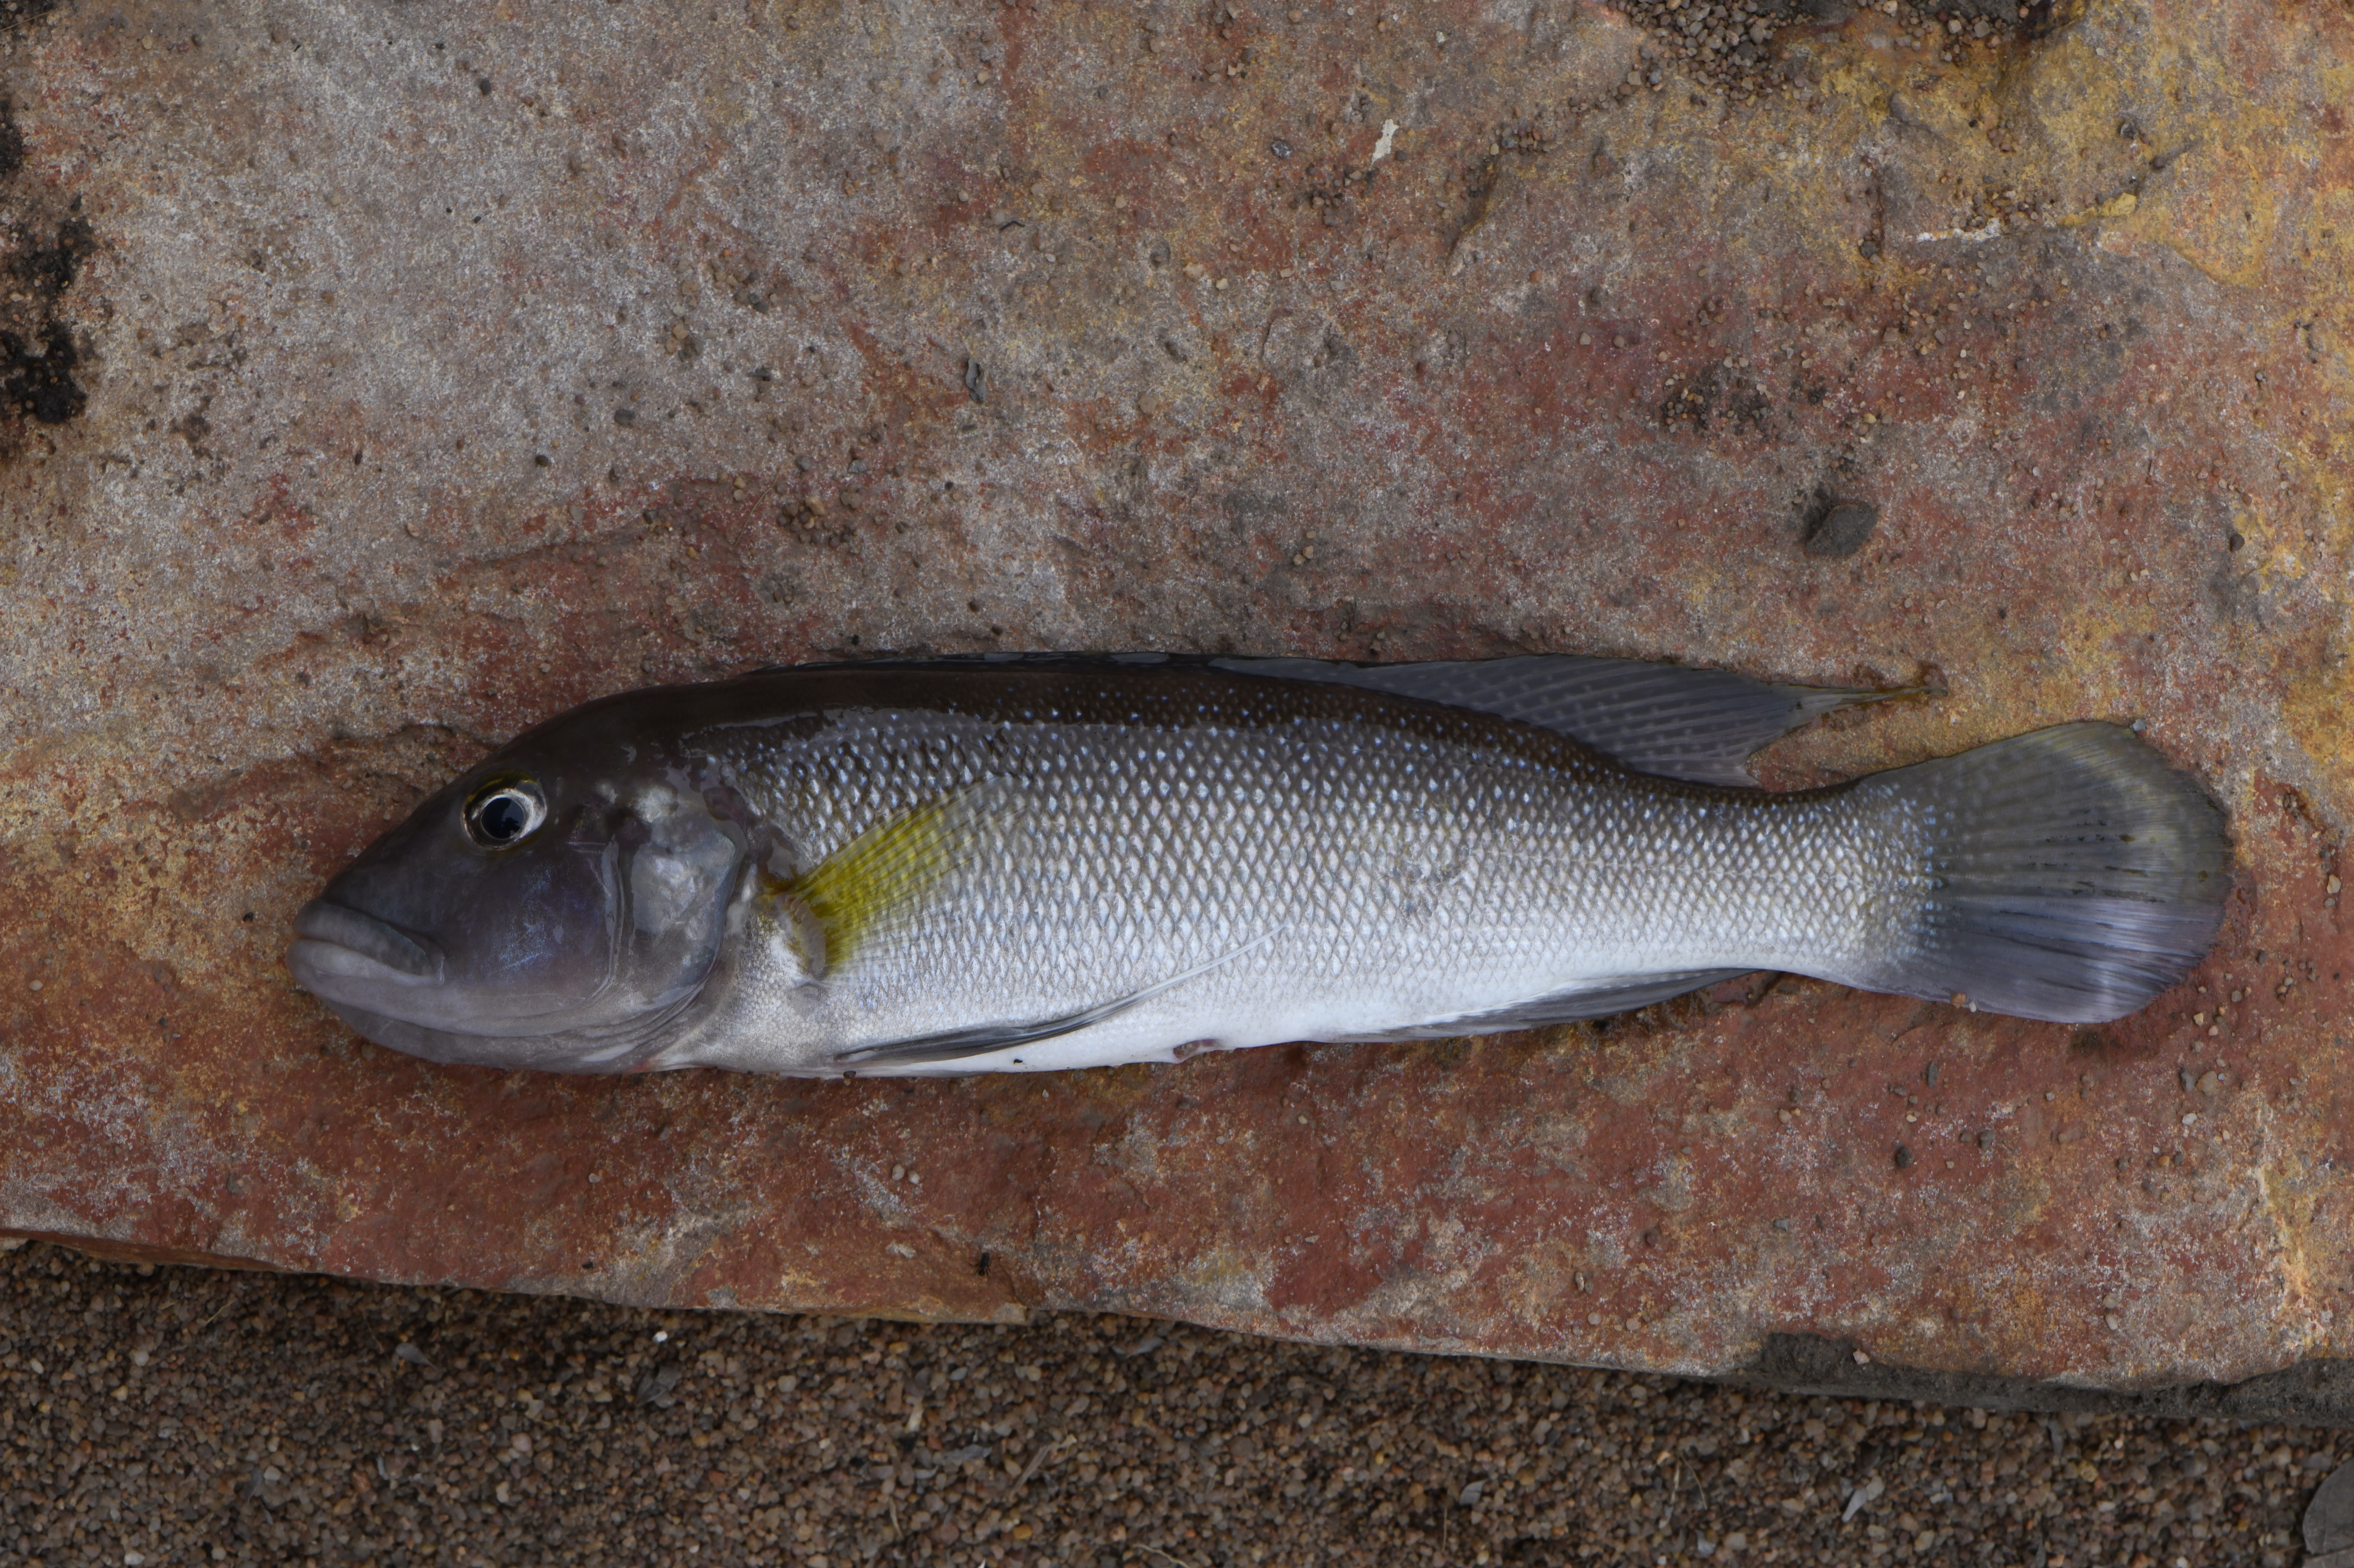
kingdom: Animalia
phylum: Chordata
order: Perciformes
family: Cichlidae
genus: Lepidiolamprologus
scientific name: Lepidiolamprologus cunningtoni
